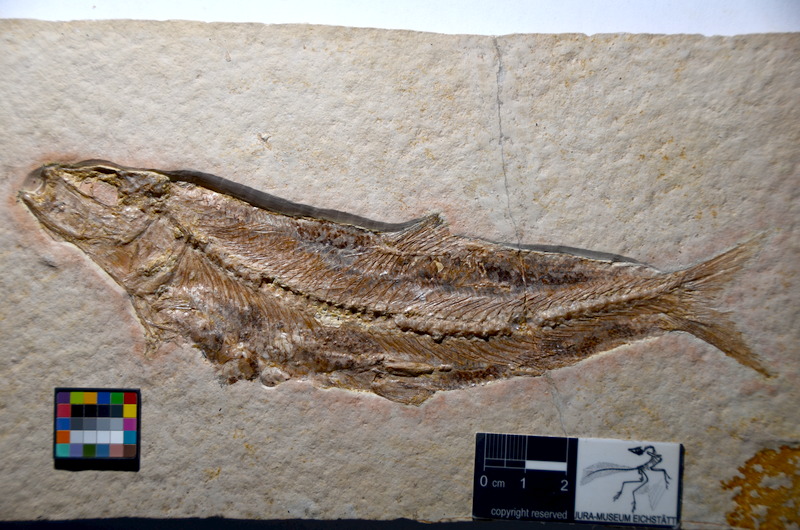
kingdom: Animalia
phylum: Chordata
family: Ascalaboidae
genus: Tharsis
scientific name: Tharsis dubius
